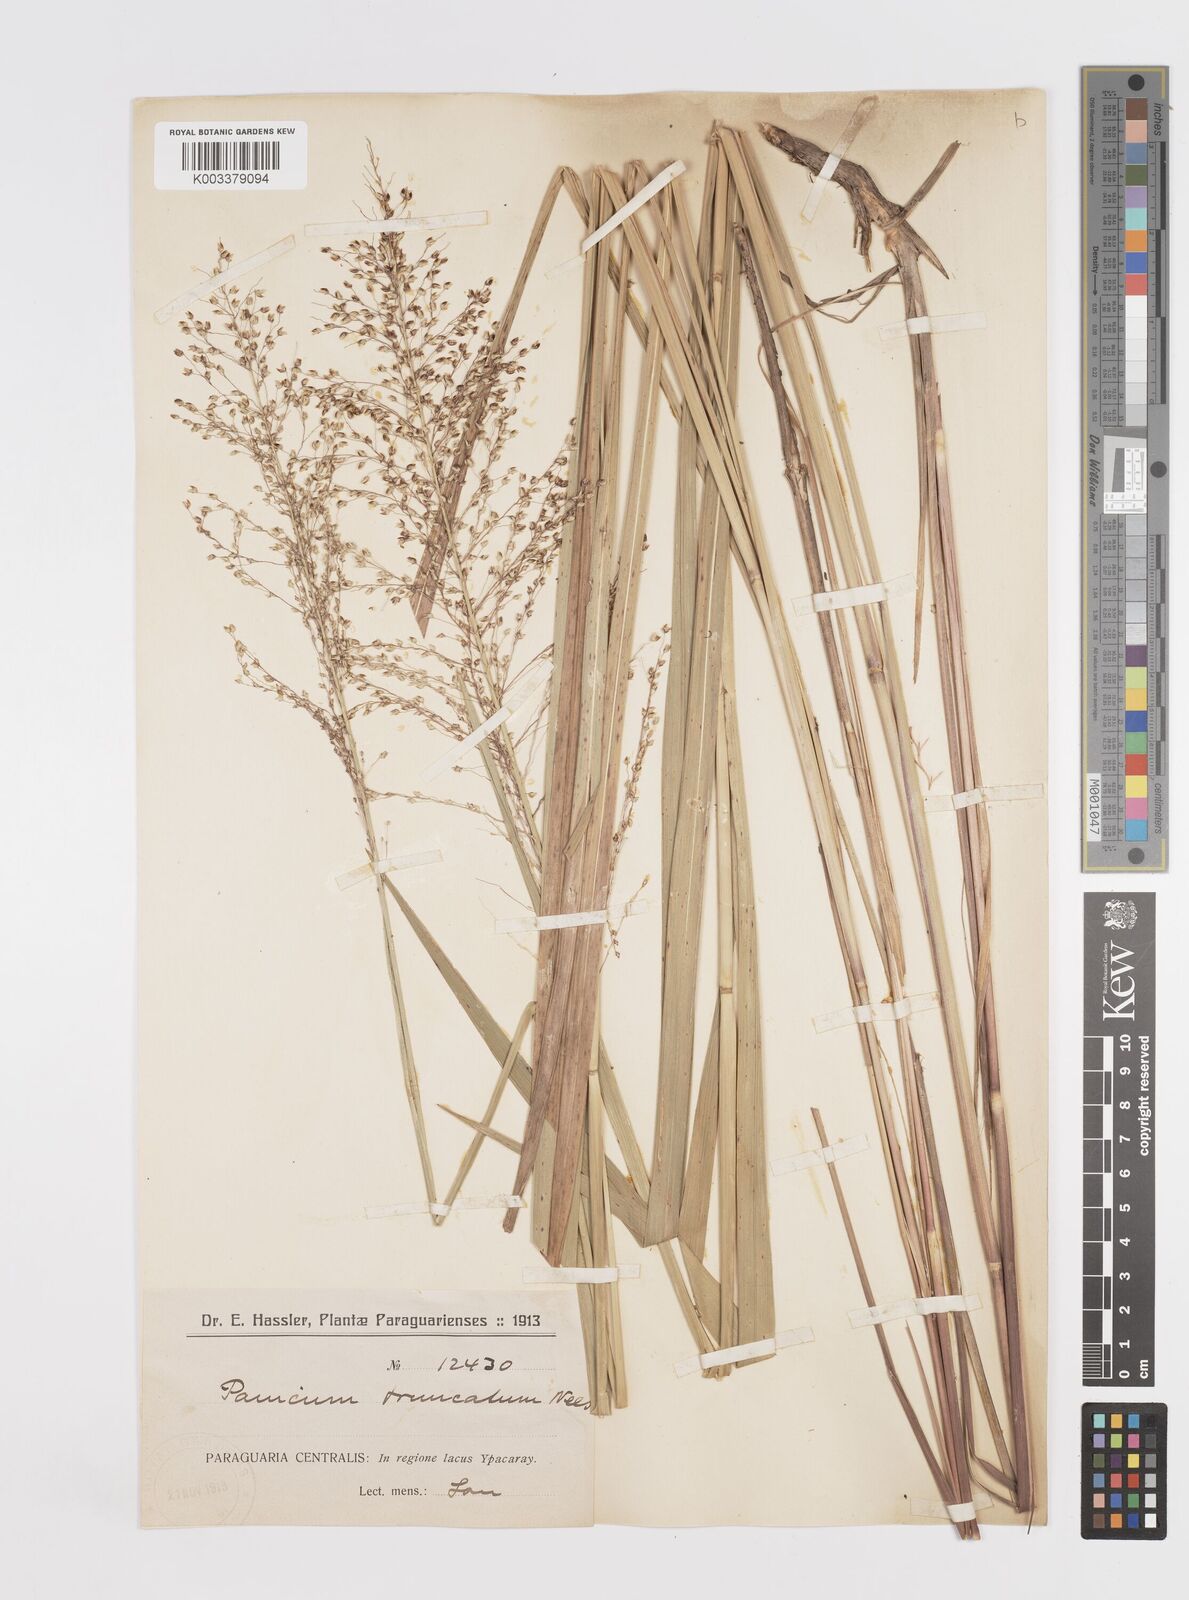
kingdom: Plantae
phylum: Tracheophyta
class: Liliopsida
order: Poales
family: Poaceae
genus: Otachyrium
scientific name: Otachyrium versicolor
